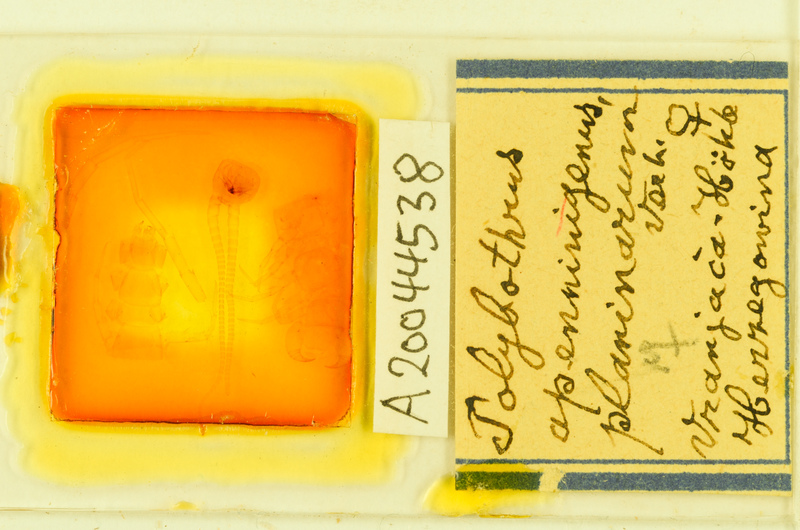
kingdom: Animalia
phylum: Arthropoda
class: Chilopoda
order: Lithobiomorpha
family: Lithobiidae
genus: Polybothrus
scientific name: Polybothrus
